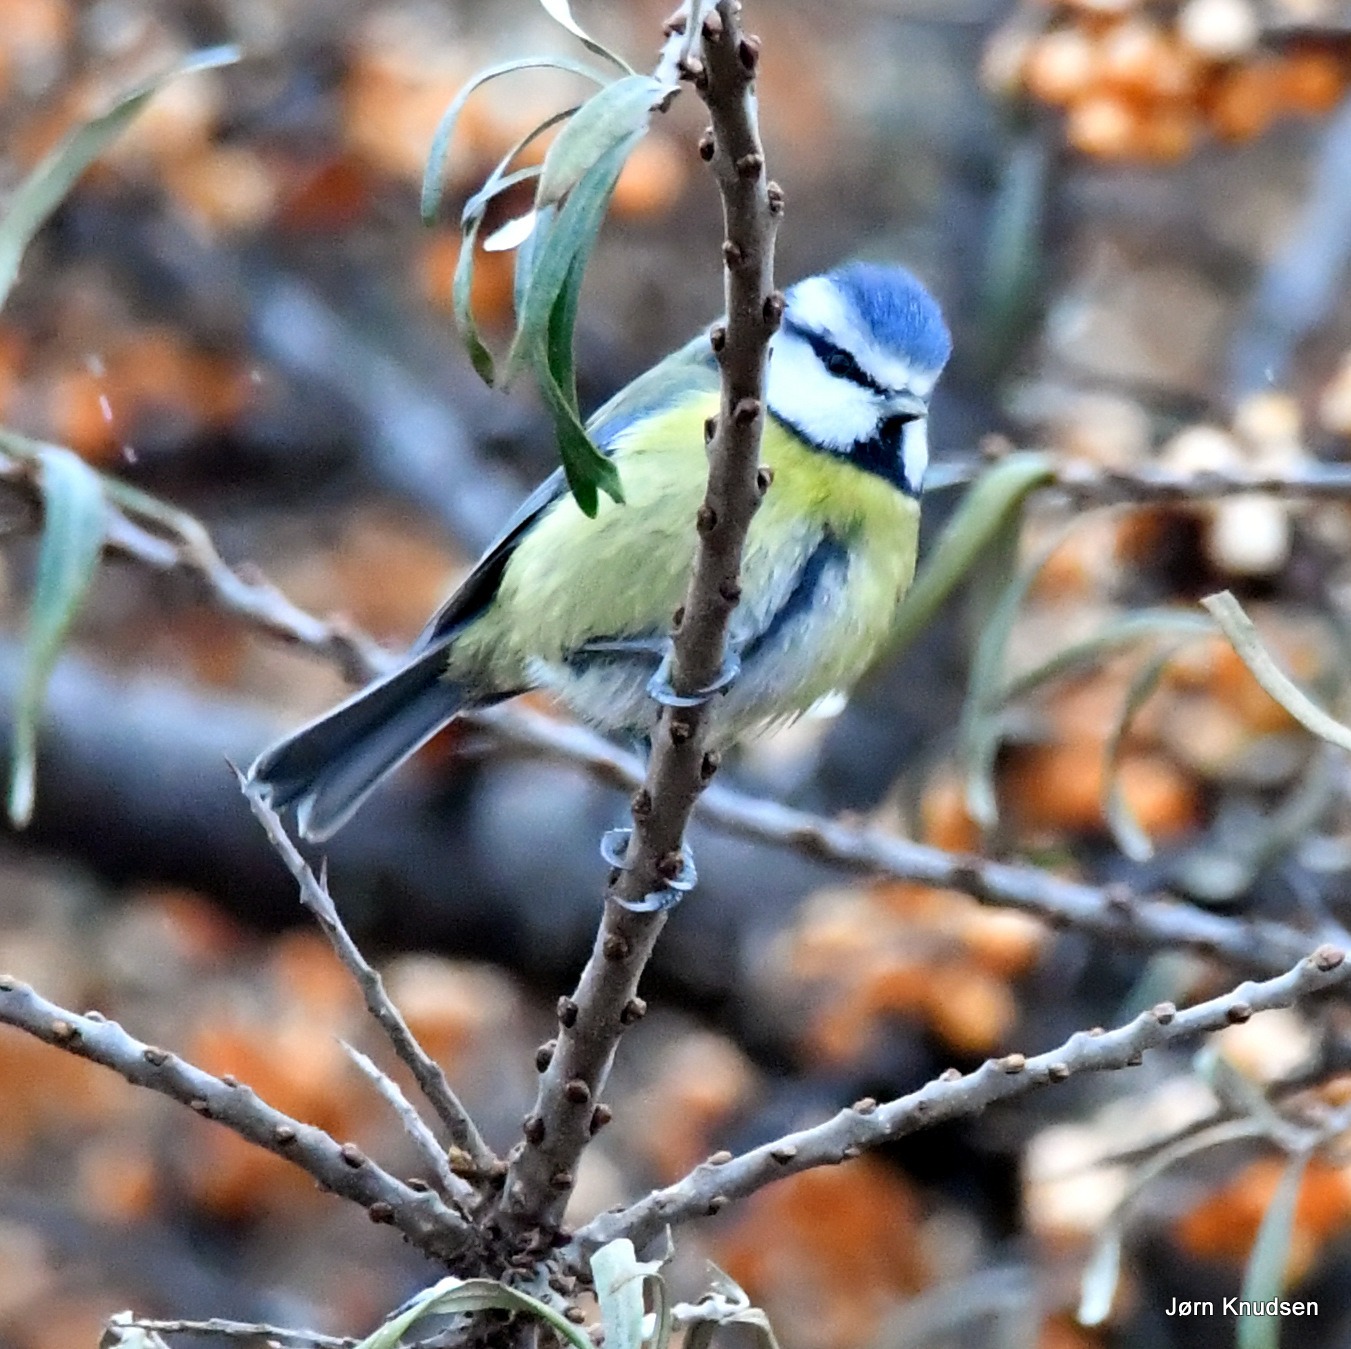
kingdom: Animalia
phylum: Chordata
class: Aves
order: Passeriformes
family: Paridae
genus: Cyanistes
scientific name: Cyanistes caeruleus
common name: Blåmejse
